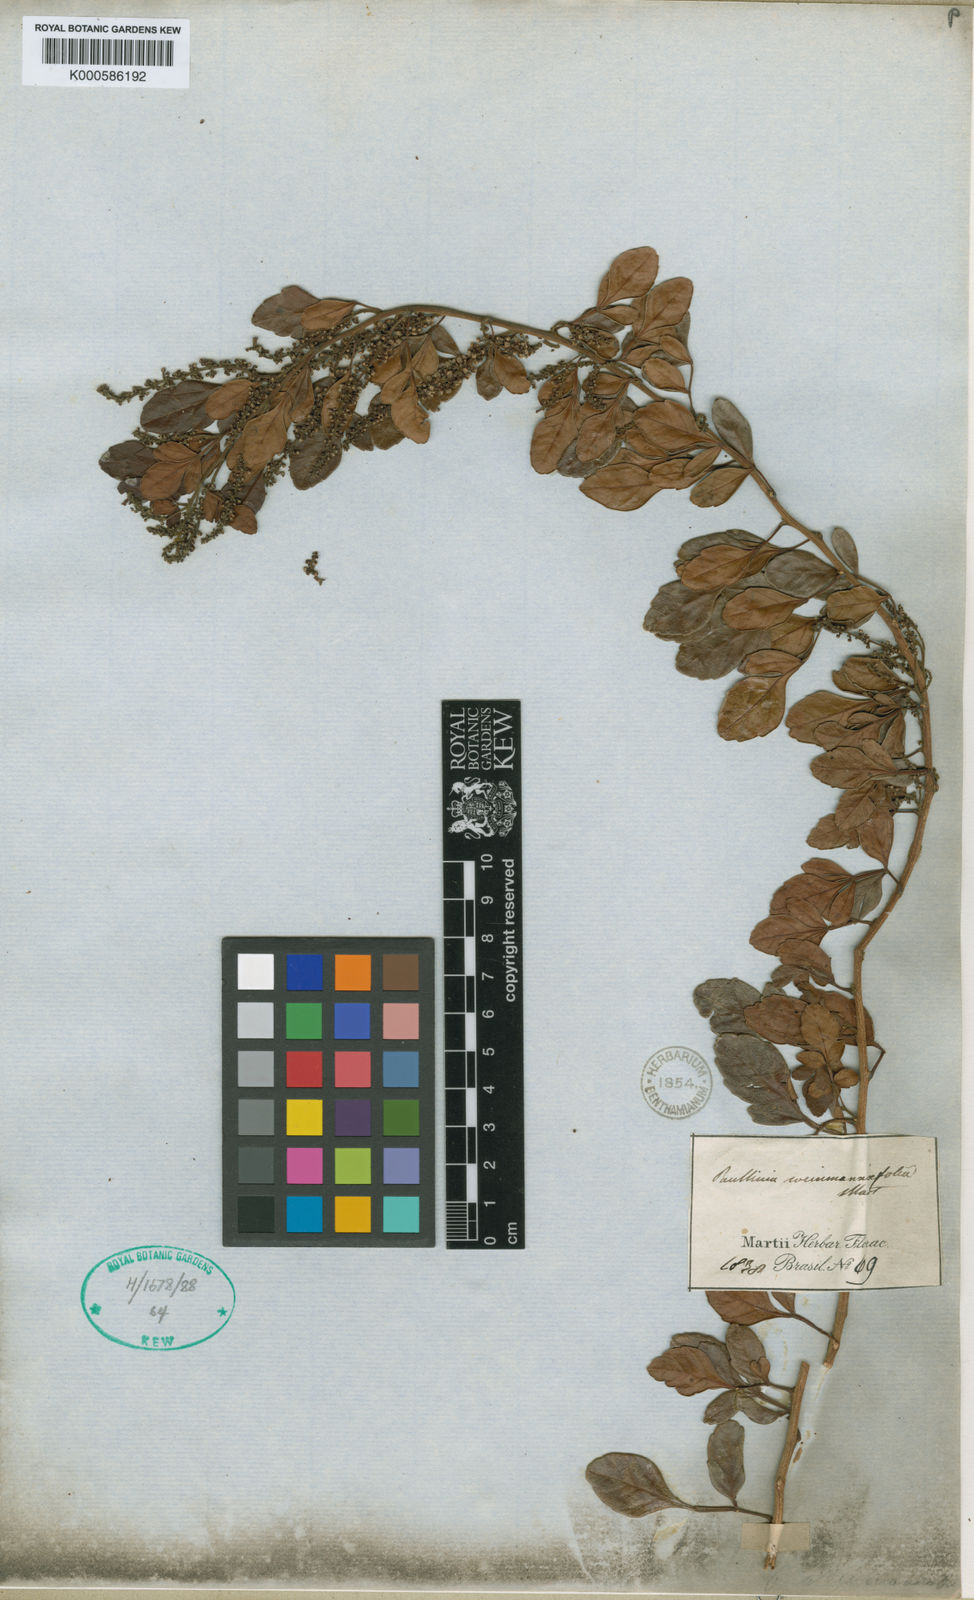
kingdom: Plantae
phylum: Tracheophyta
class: Magnoliopsida
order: Sapindales
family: Sapindaceae
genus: Paullinia
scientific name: Paullinia
